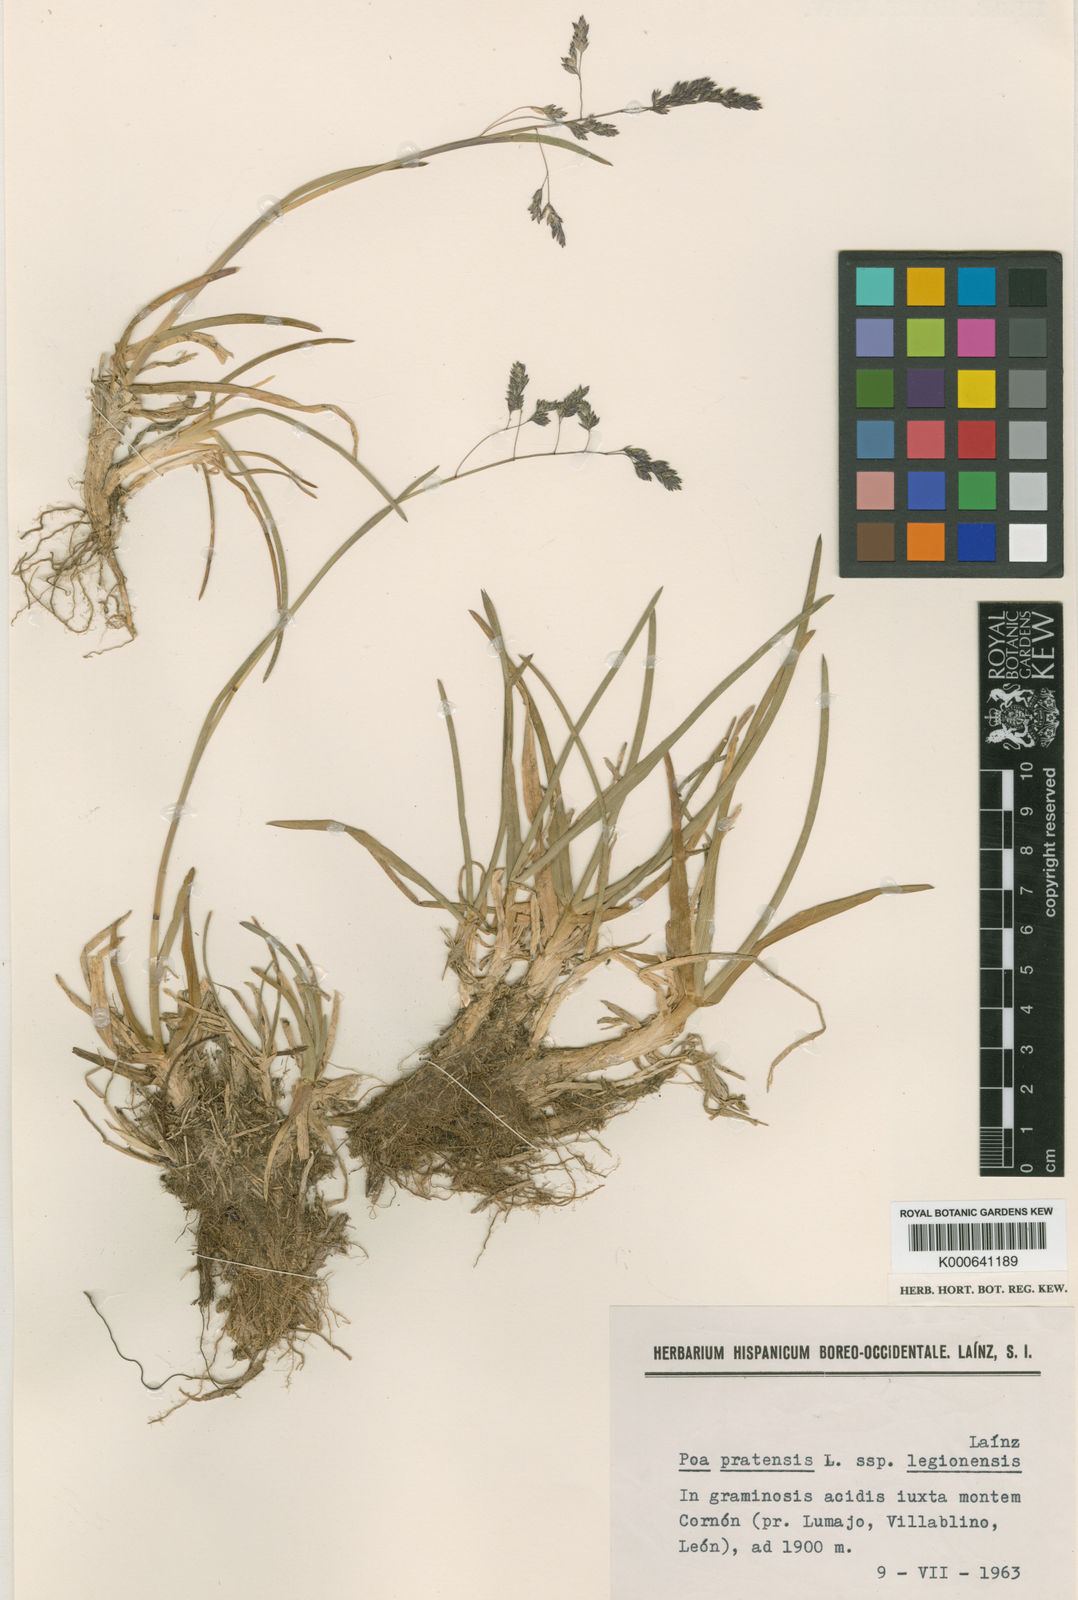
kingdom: Plantae
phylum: Tracheophyta
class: Liliopsida
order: Poales
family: Poaceae
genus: Poa
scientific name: Poa pratensis
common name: Kentucky bluegrass
